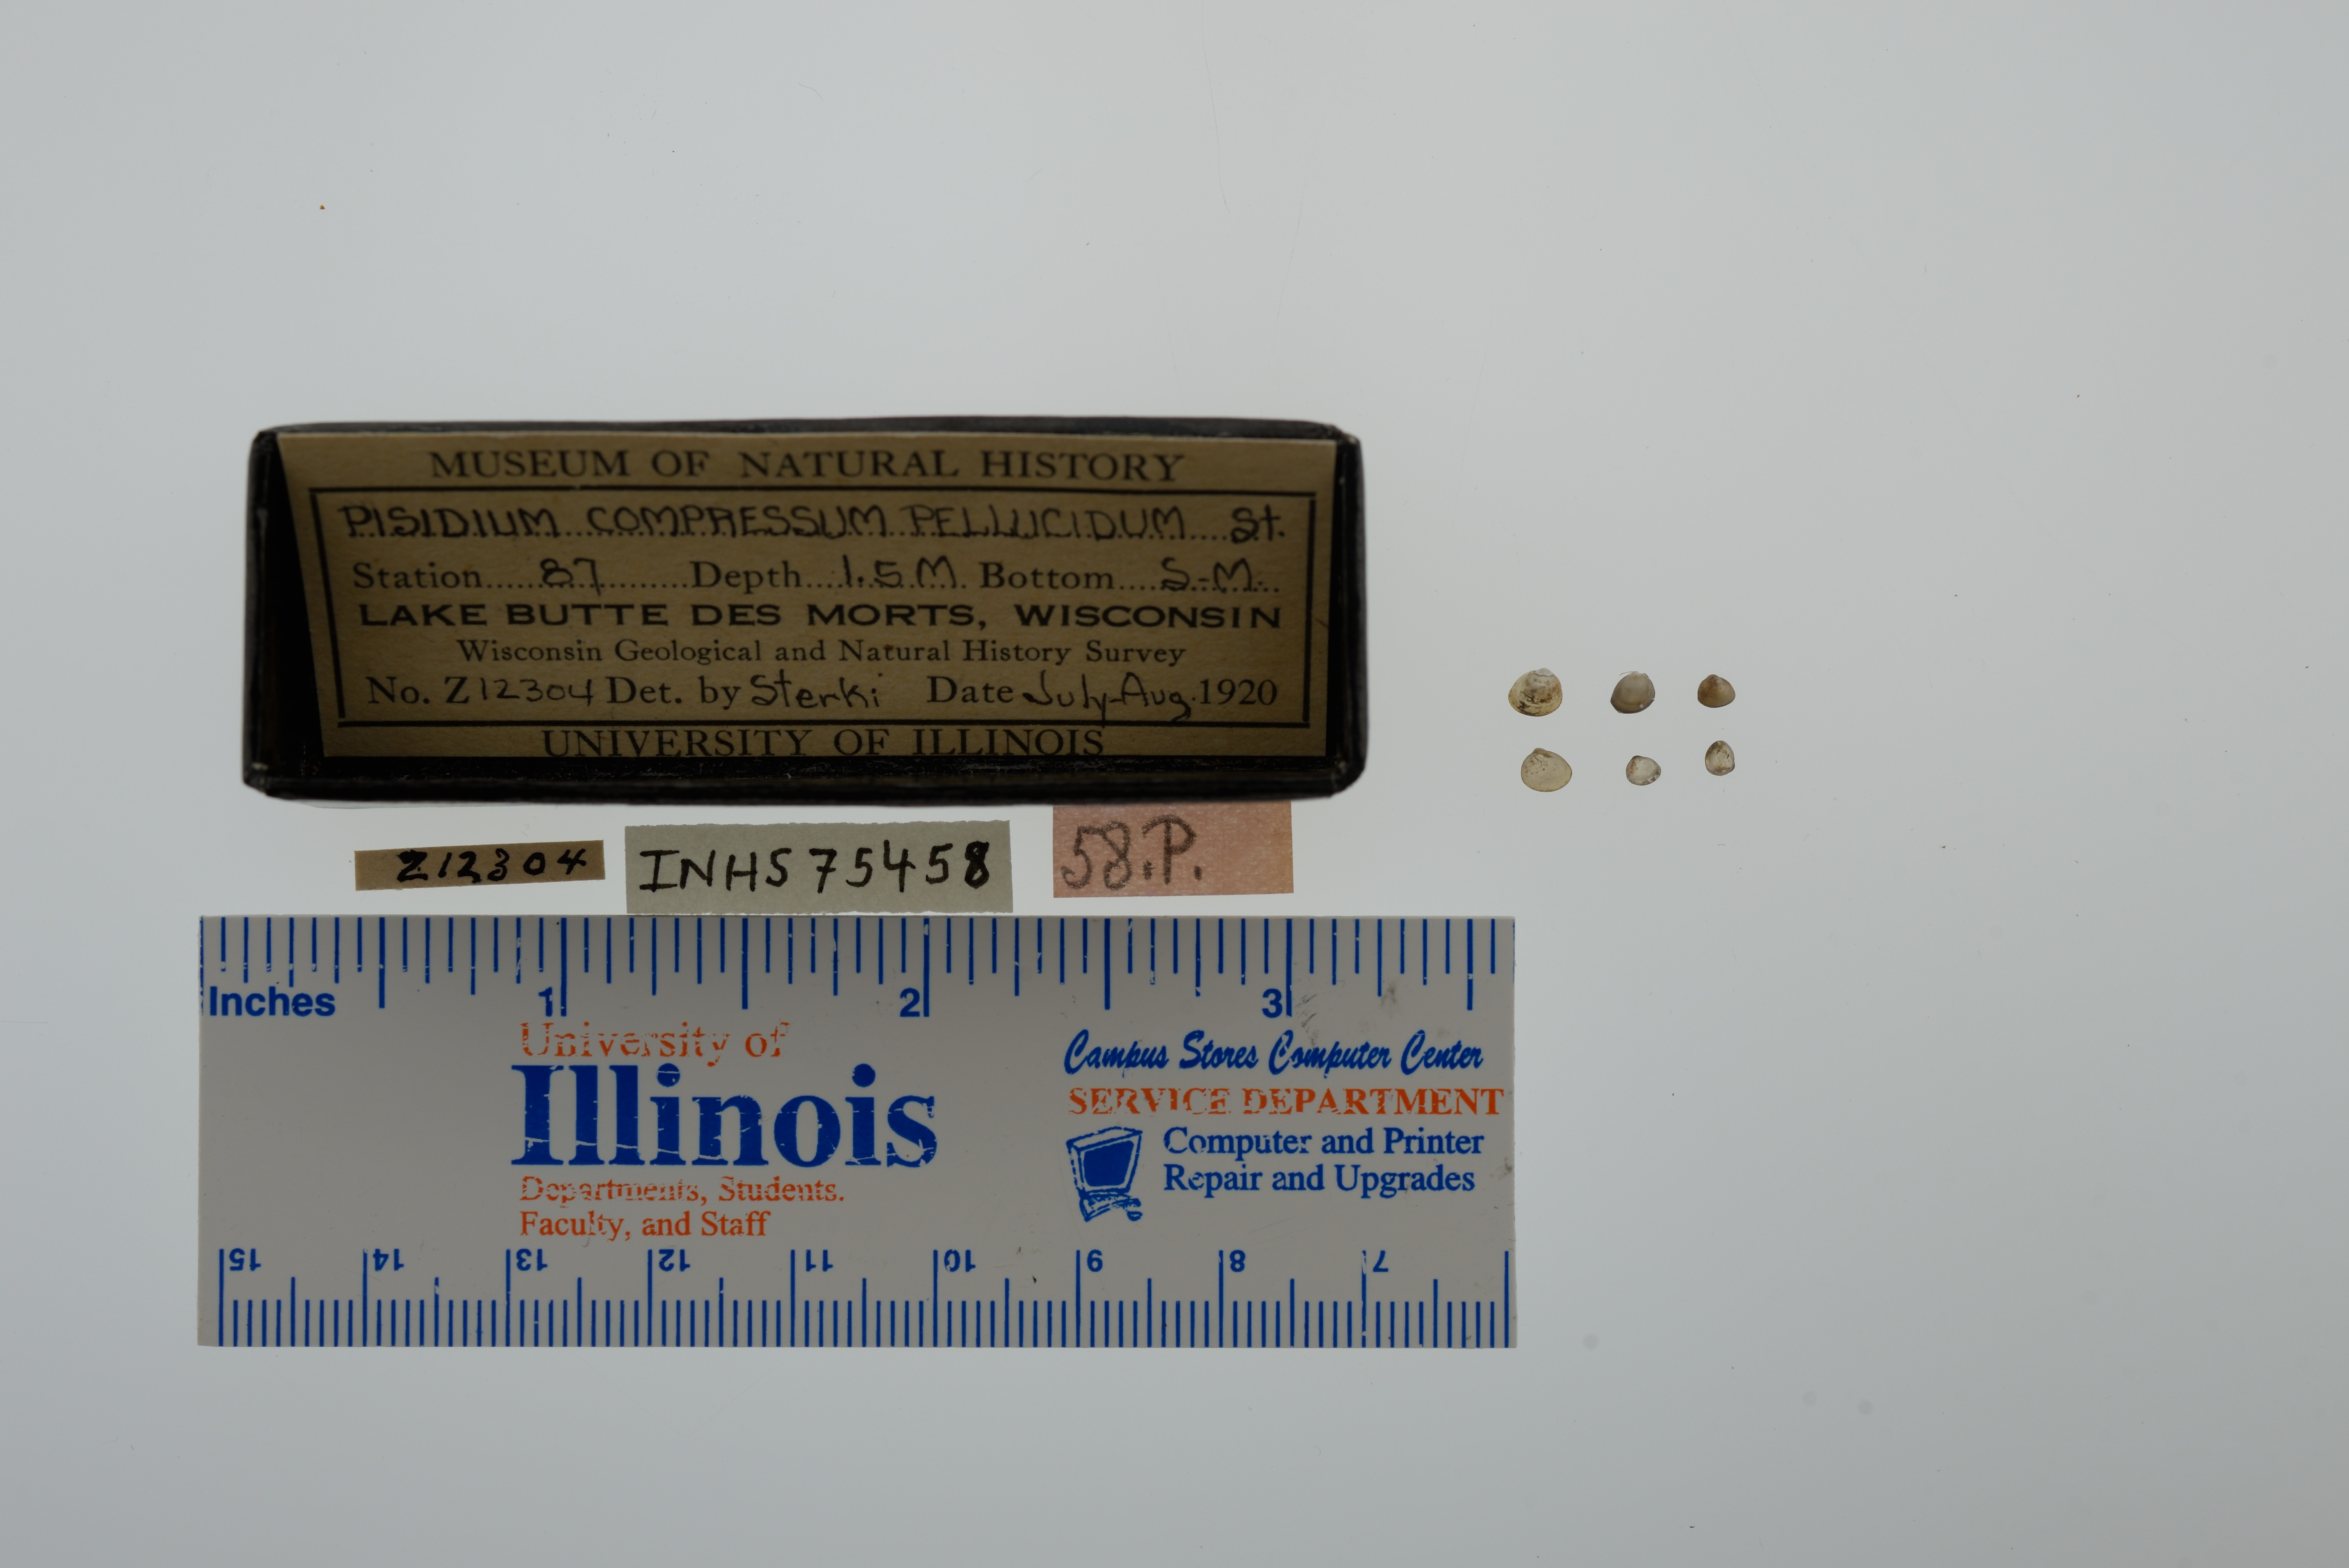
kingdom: Animalia
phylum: Mollusca
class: Bivalvia
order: Sphaeriida
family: Sphaeriidae
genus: Euglesa
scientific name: Euglesa compressa
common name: Ridgedbeak peaclam
